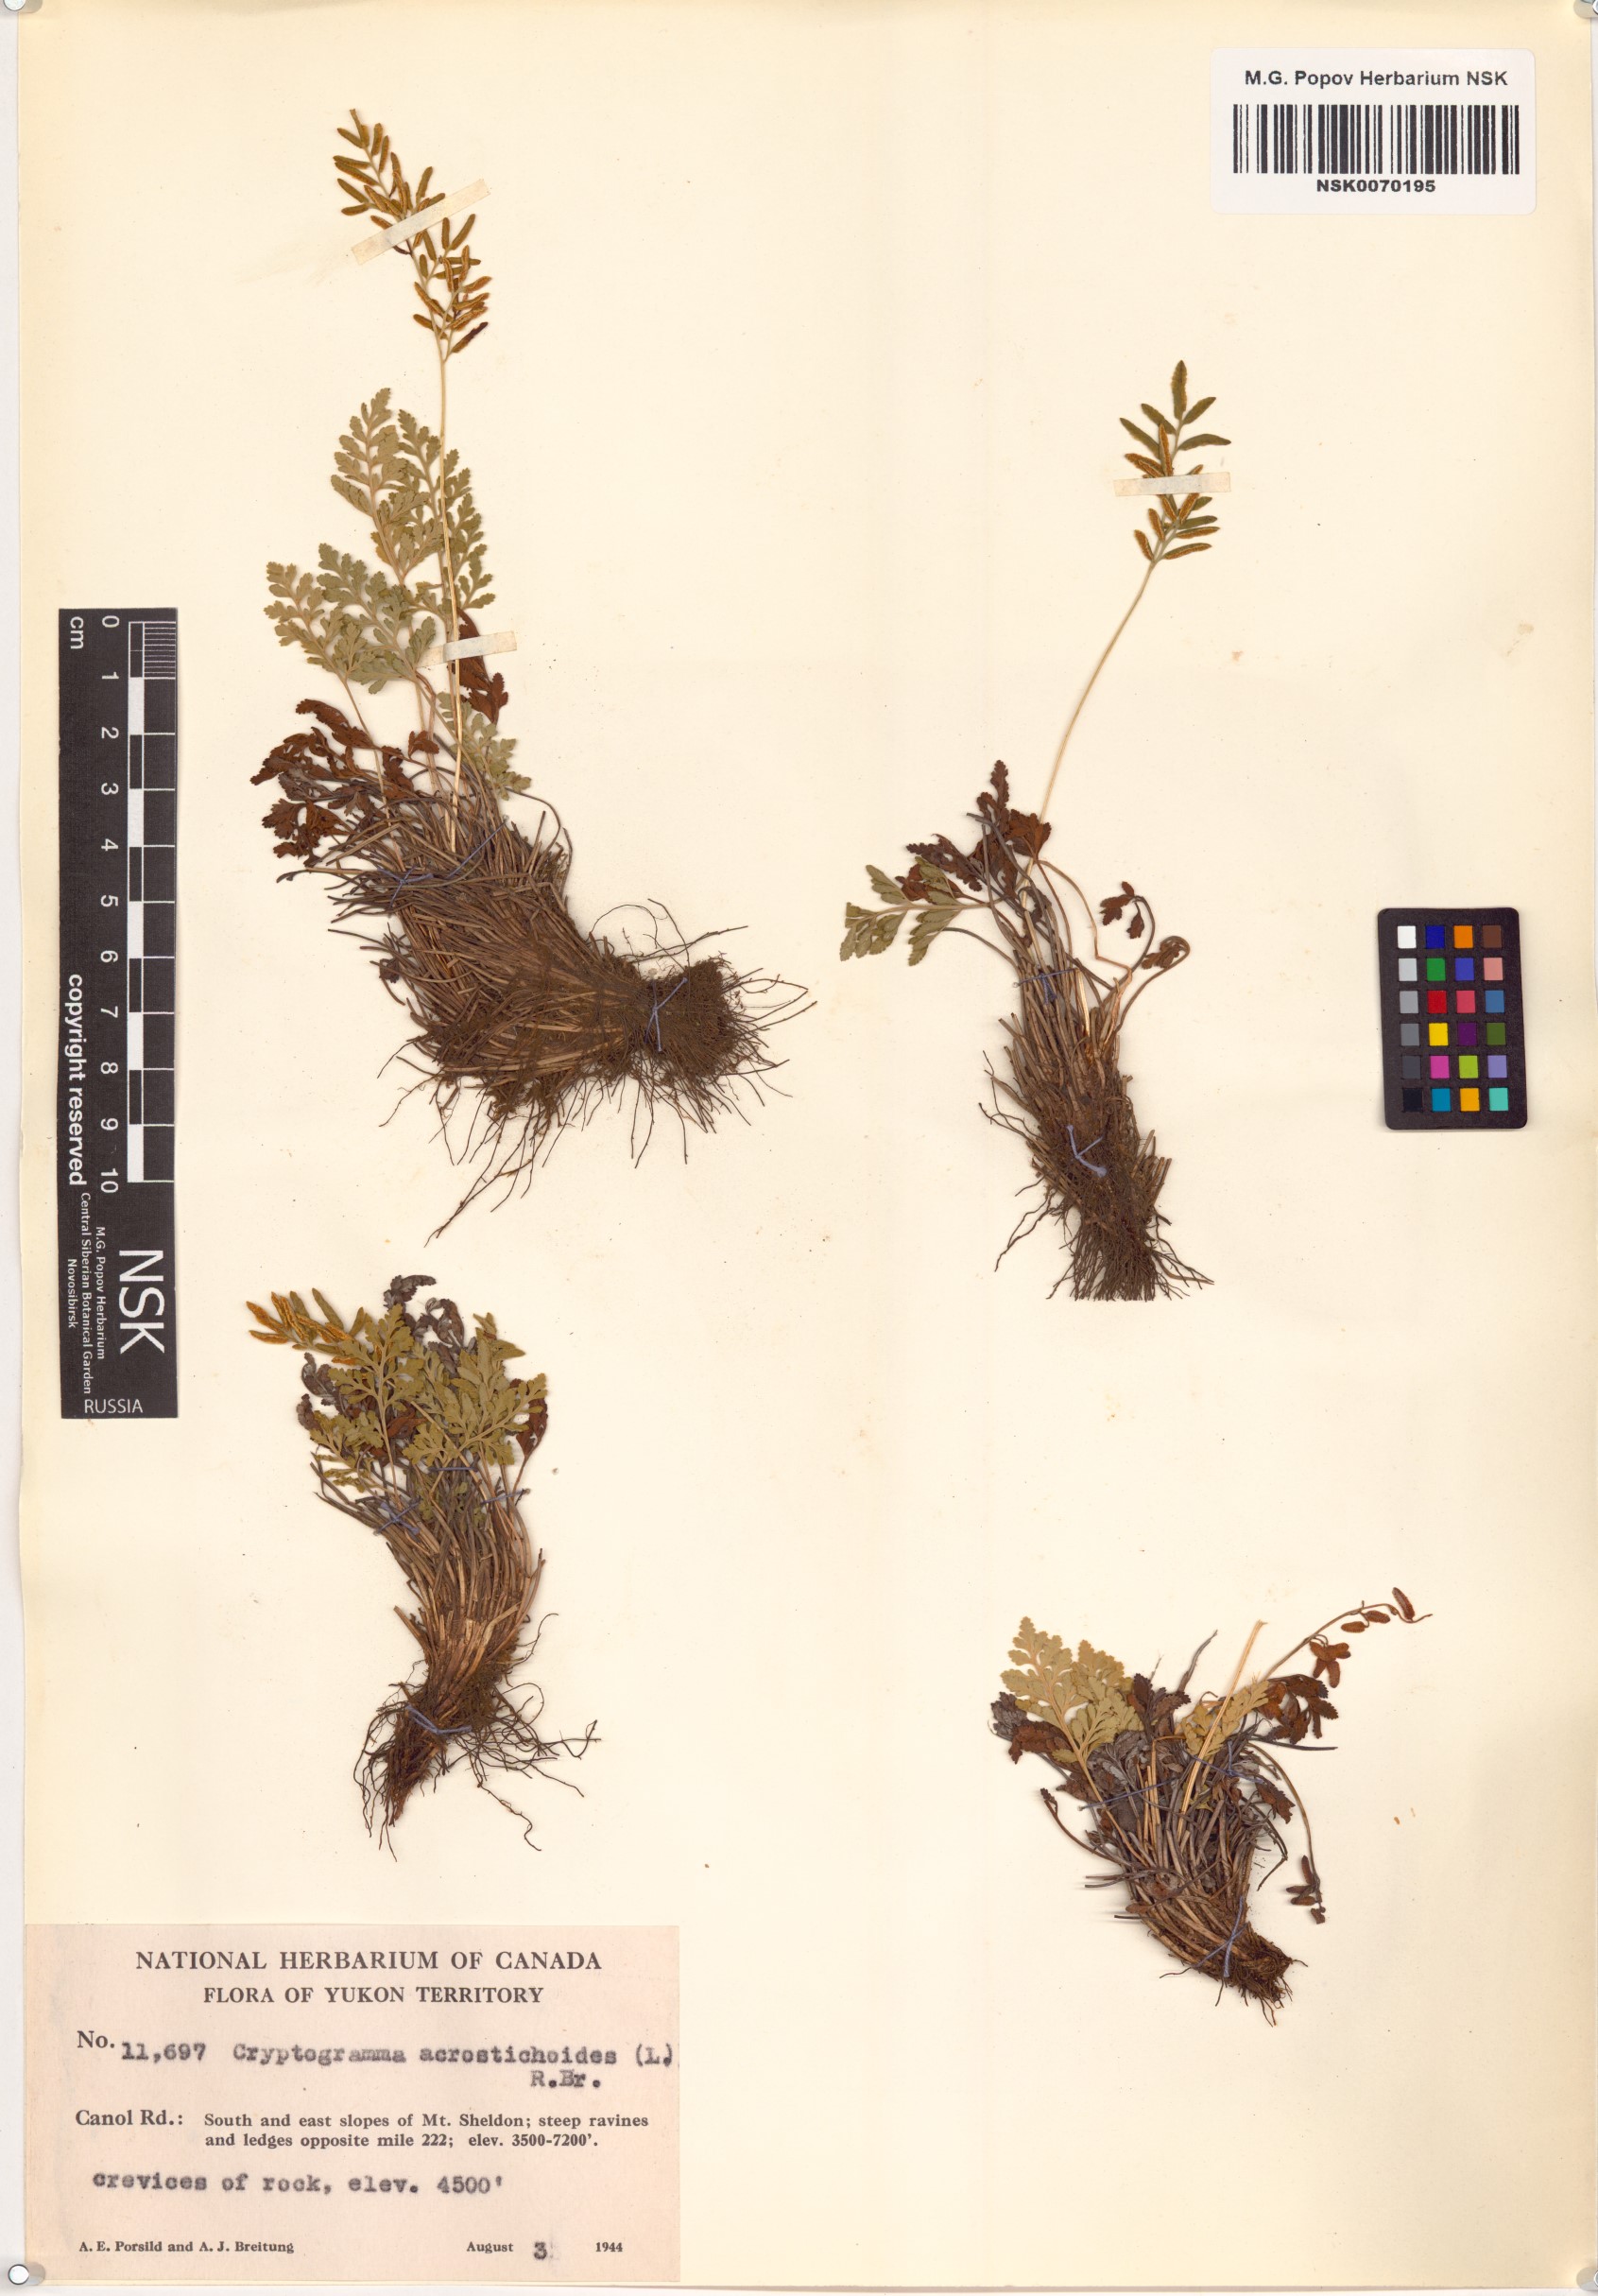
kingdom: Plantae
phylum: Tracheophyta
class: Polypodiopsida
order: Polypodiales
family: Pteridaceae
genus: Cryptogramma
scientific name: Cryptogramma acrostichoides
